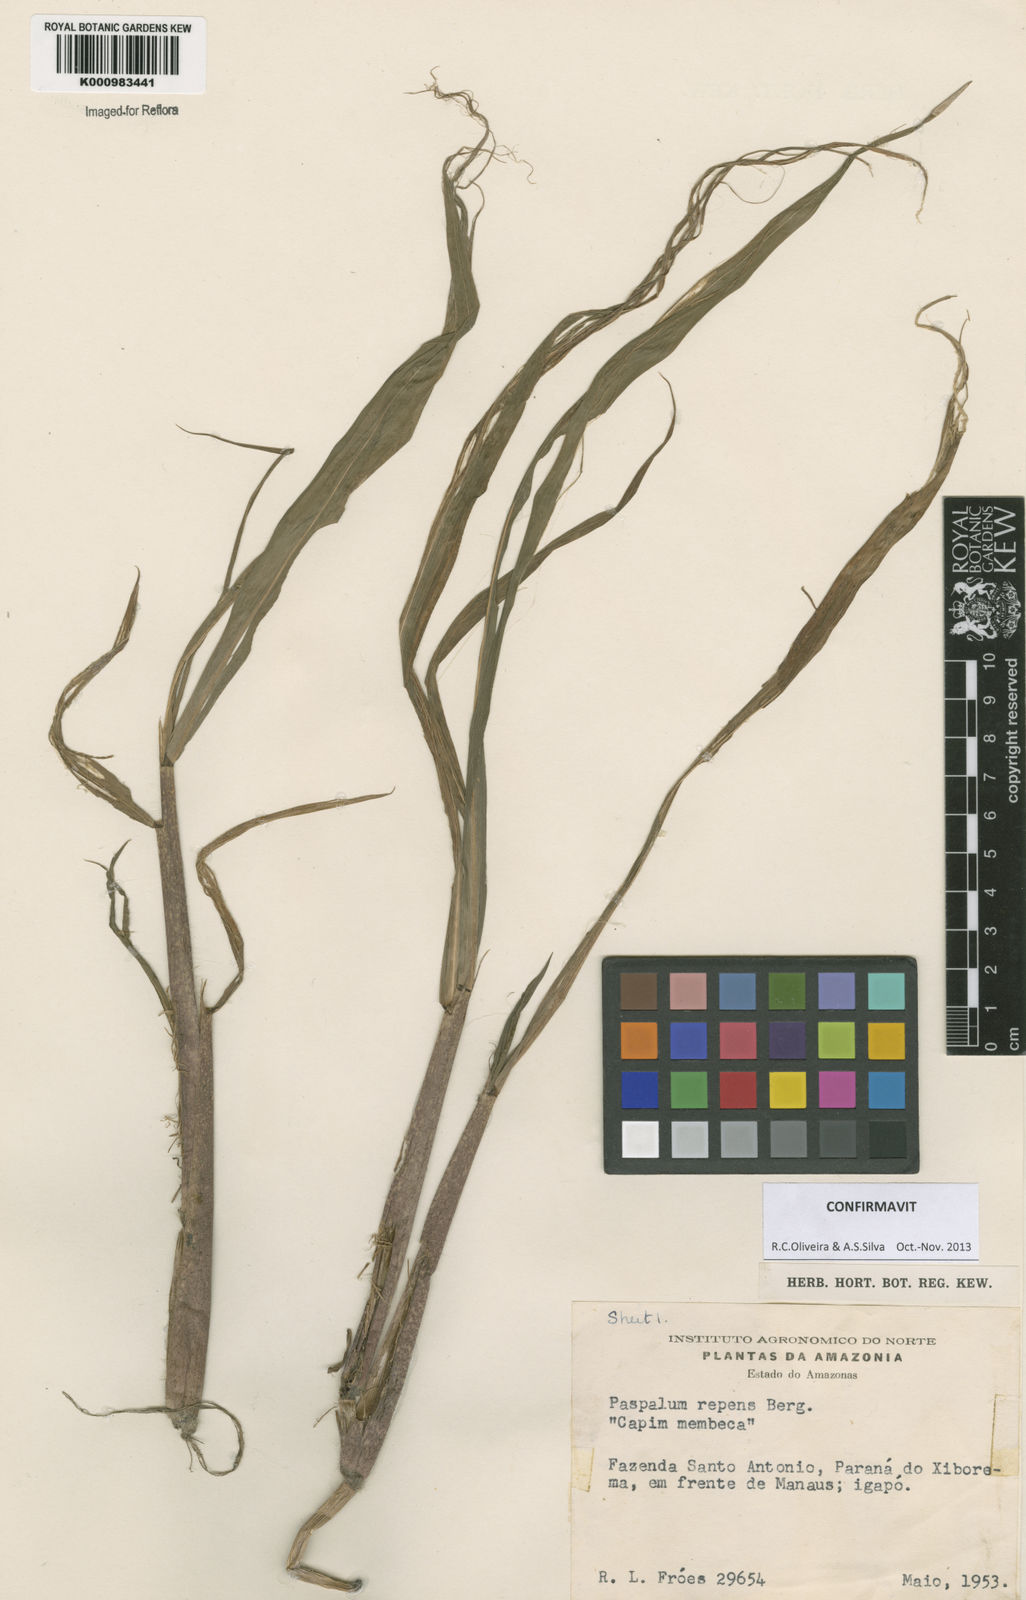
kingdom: Plantae
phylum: Tracheophyta
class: Liliopsida
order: Poales
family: Poaceae
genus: Paspalum
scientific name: Paspalum repens
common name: Water paspalum
